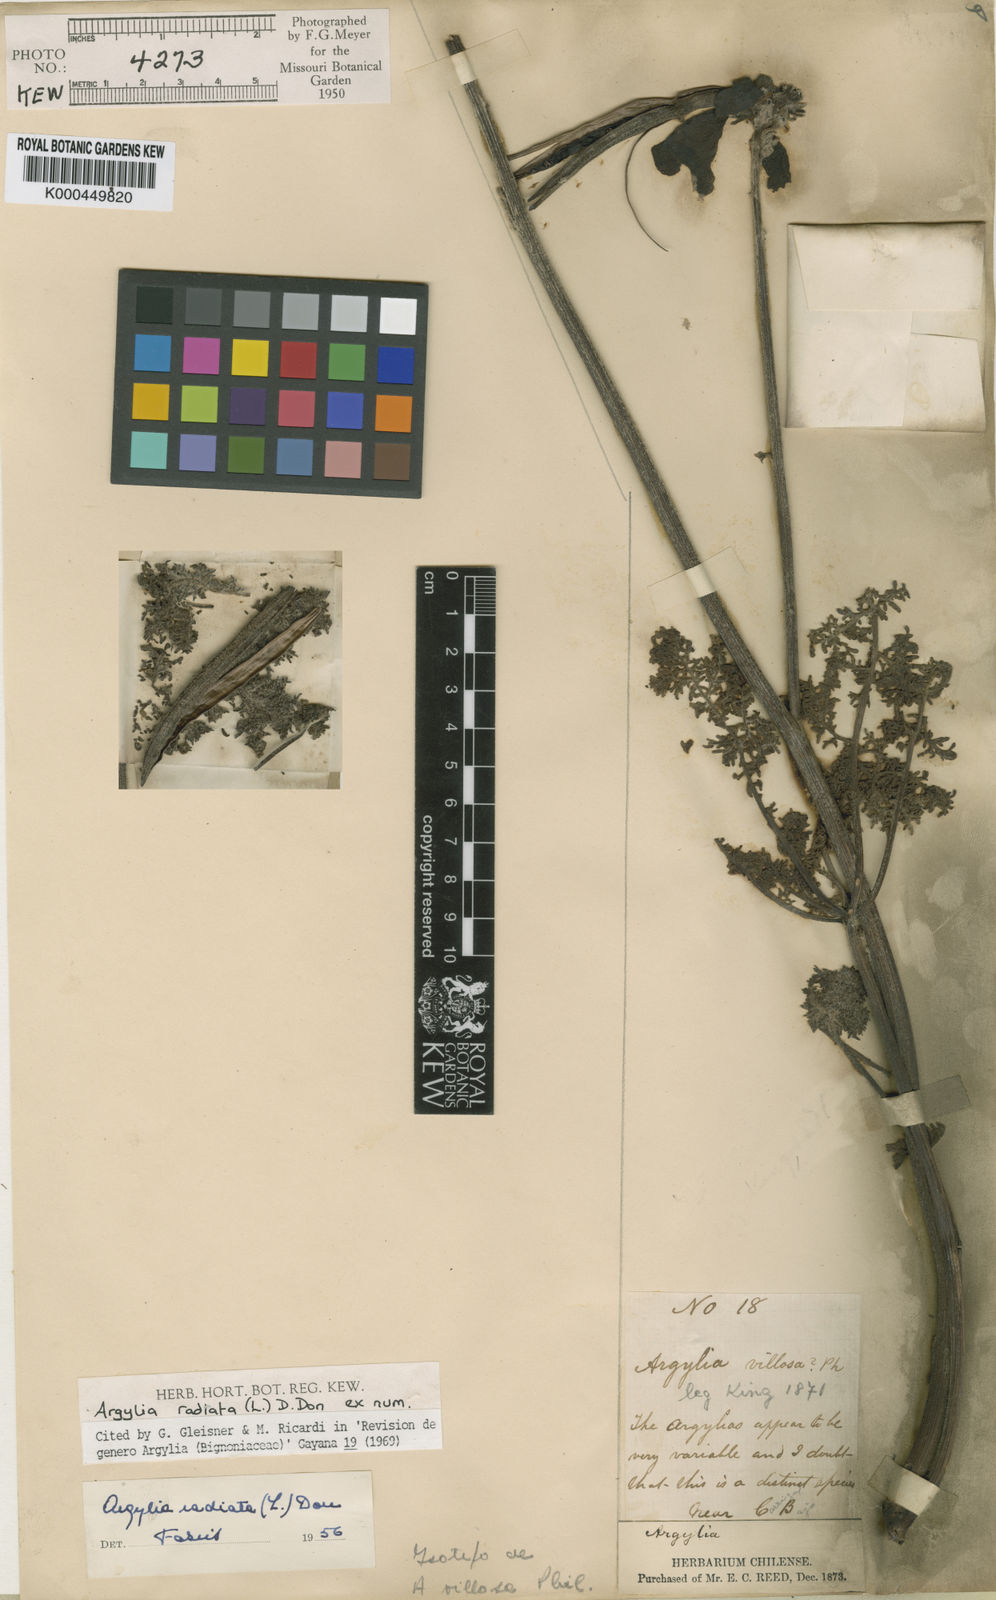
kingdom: Plantae
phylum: Tracheophyta
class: Magnoliopsida
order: Lamiales
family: Bignoniaceae
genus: Argylia
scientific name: Argylia radiata
